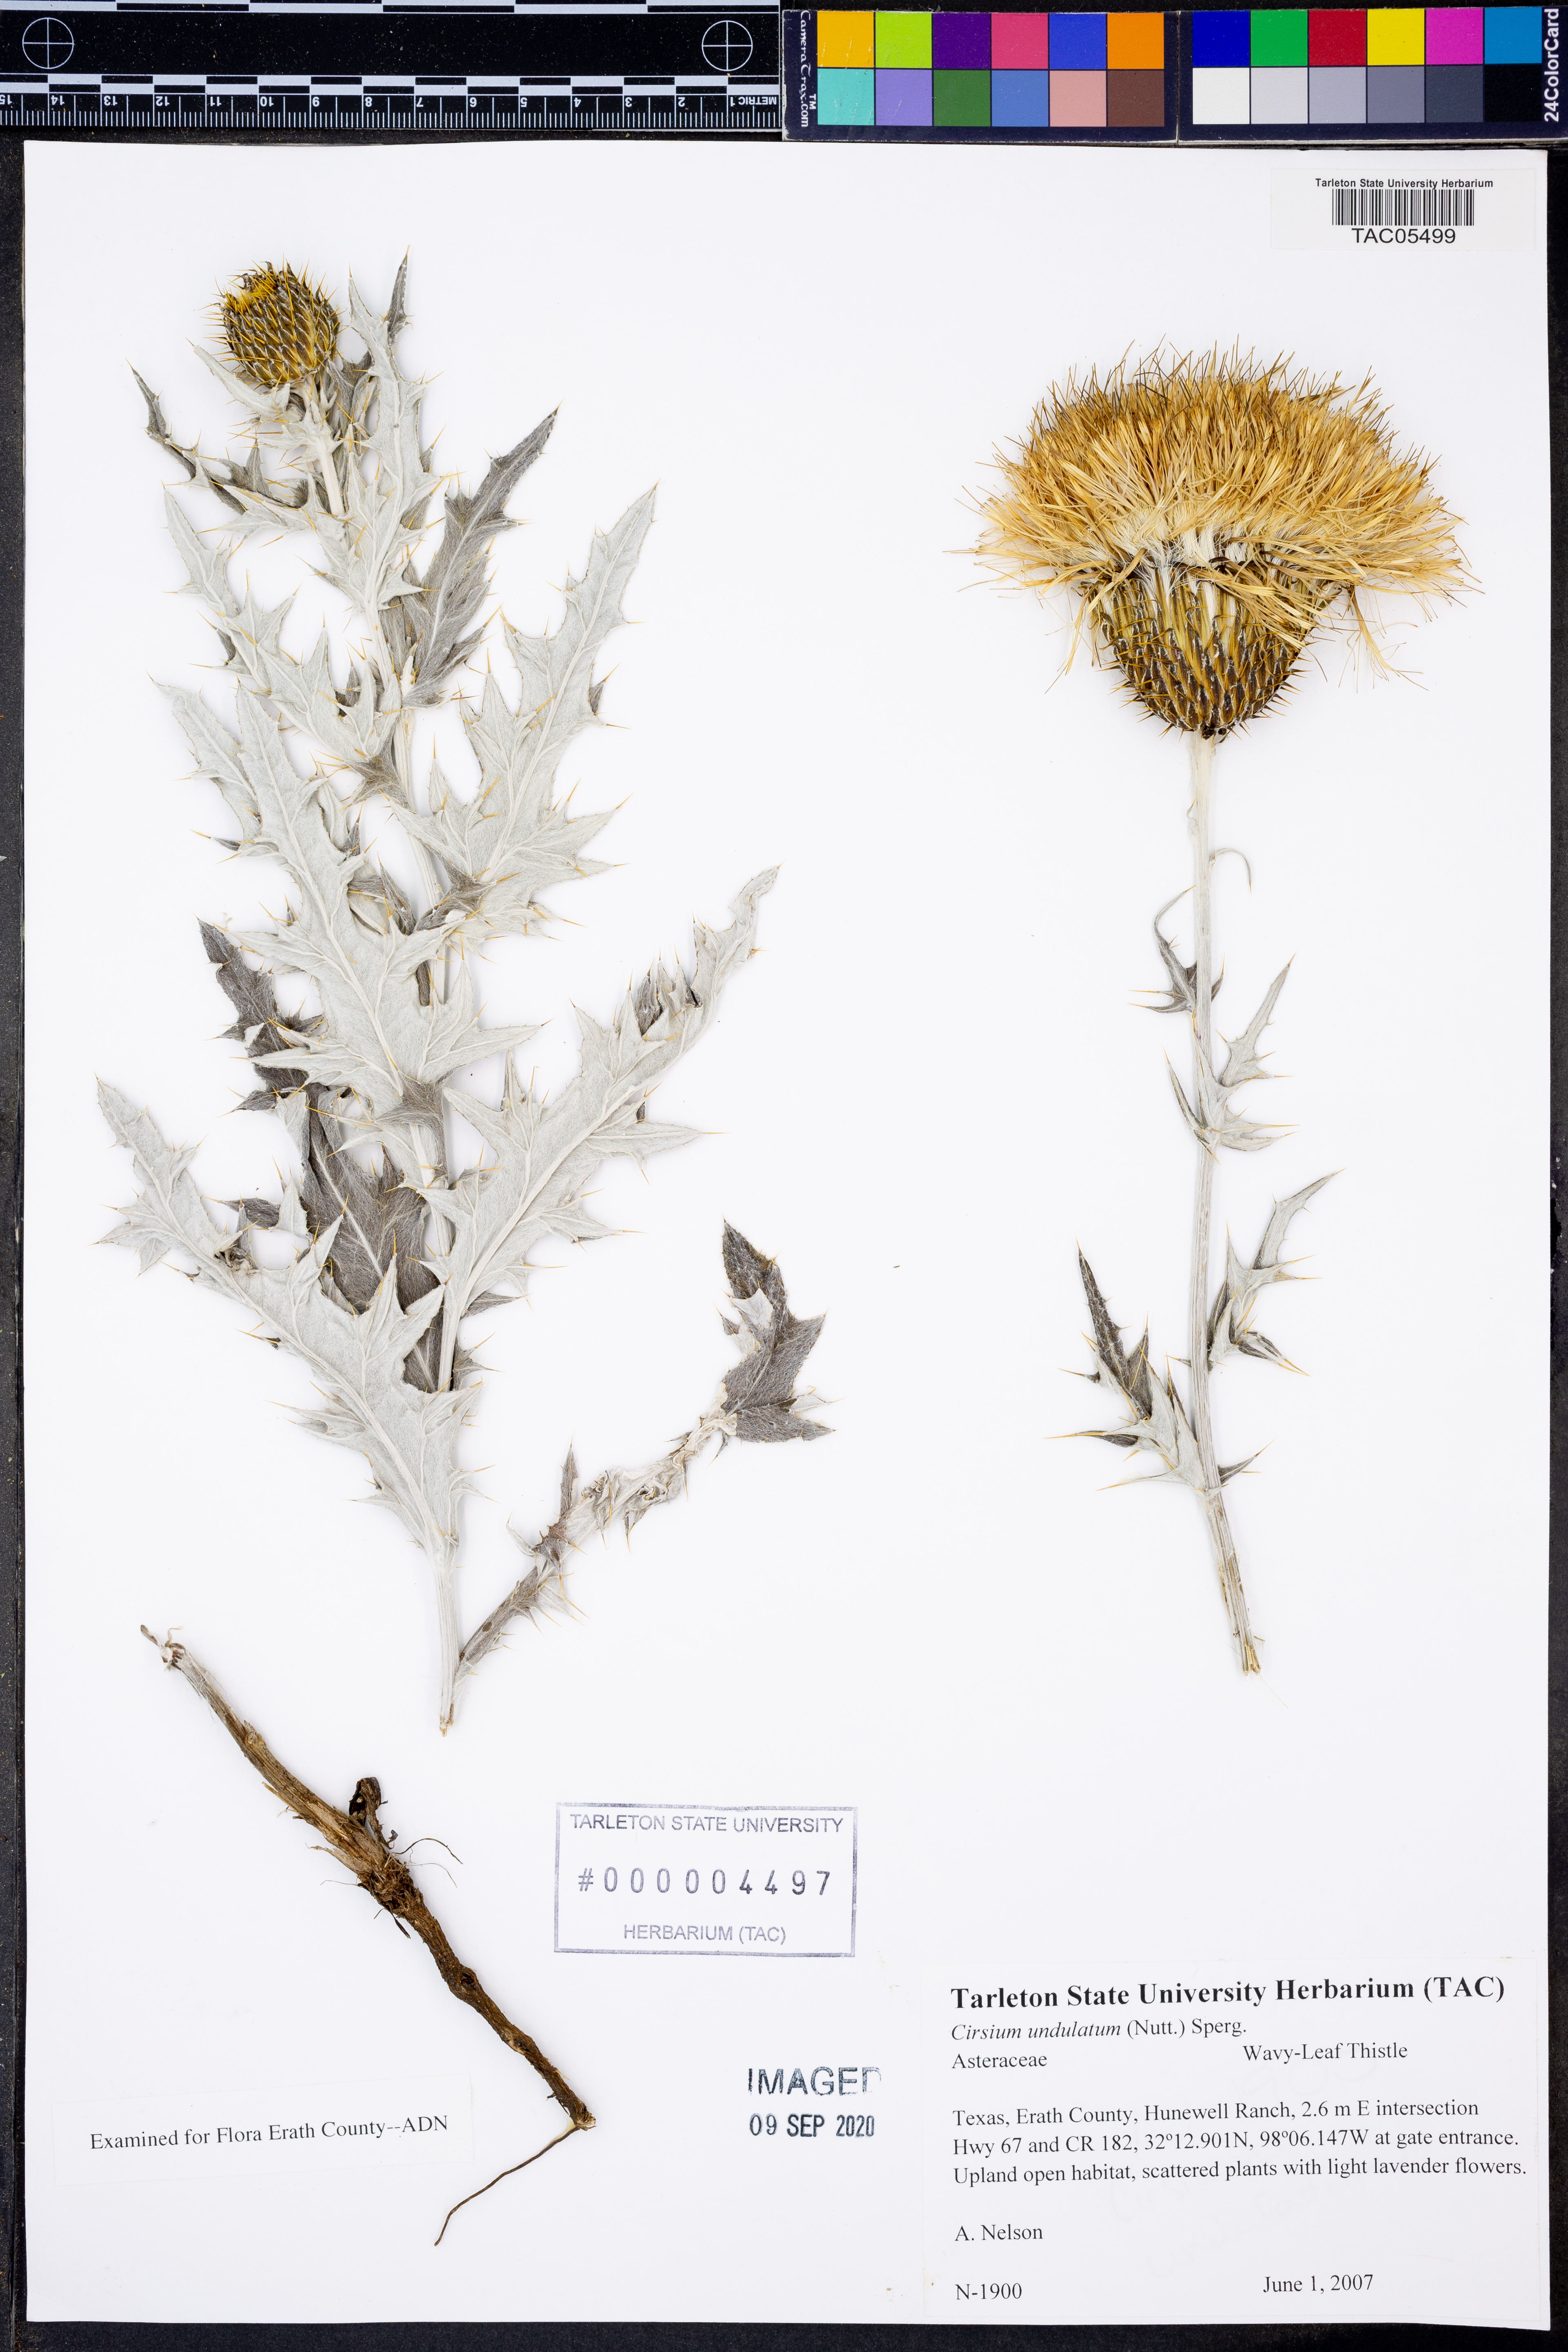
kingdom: Plantae
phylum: Tracheophyta
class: Magnoliopsida
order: Asterales
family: Asteraceae
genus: Cirsium
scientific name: Cirsium undulatum
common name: Pasture thistle
